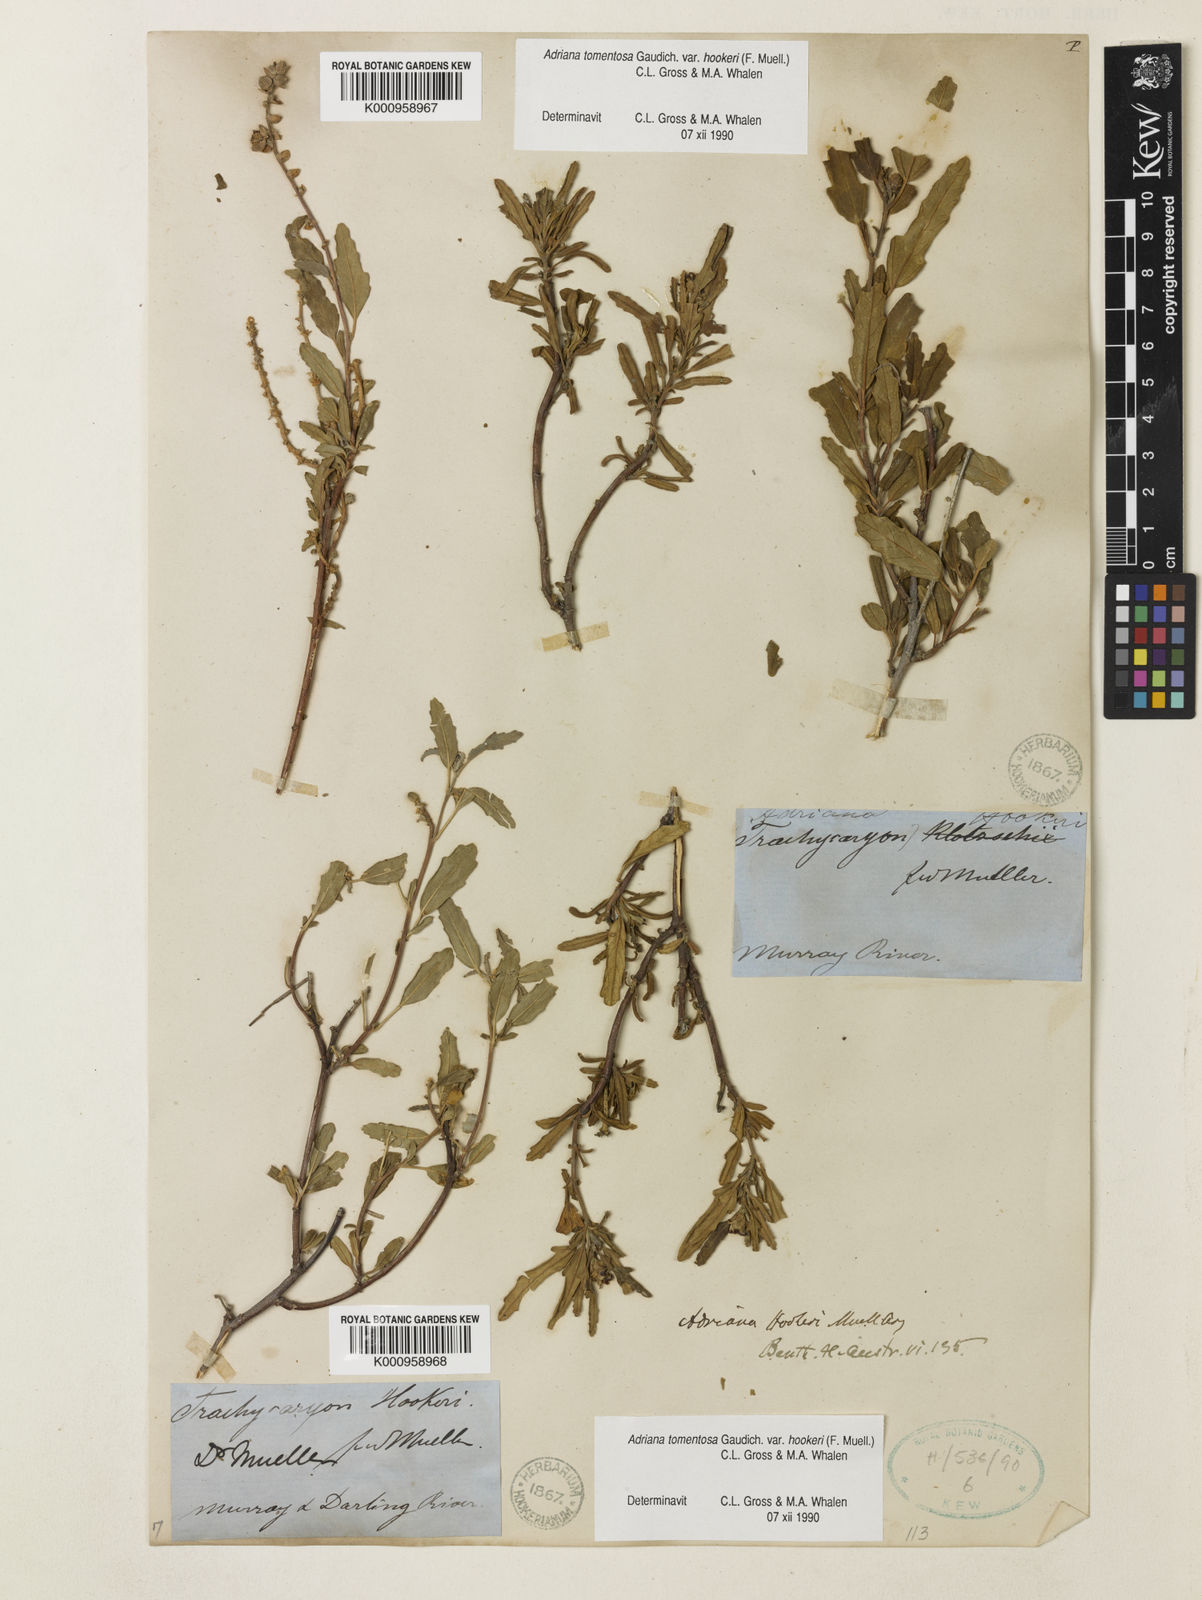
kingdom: Plantae
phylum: Tracheophyta
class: Magnoliopsida
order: Malpighiales
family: Euphorbiaceae
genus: Adriana
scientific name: Adriana
